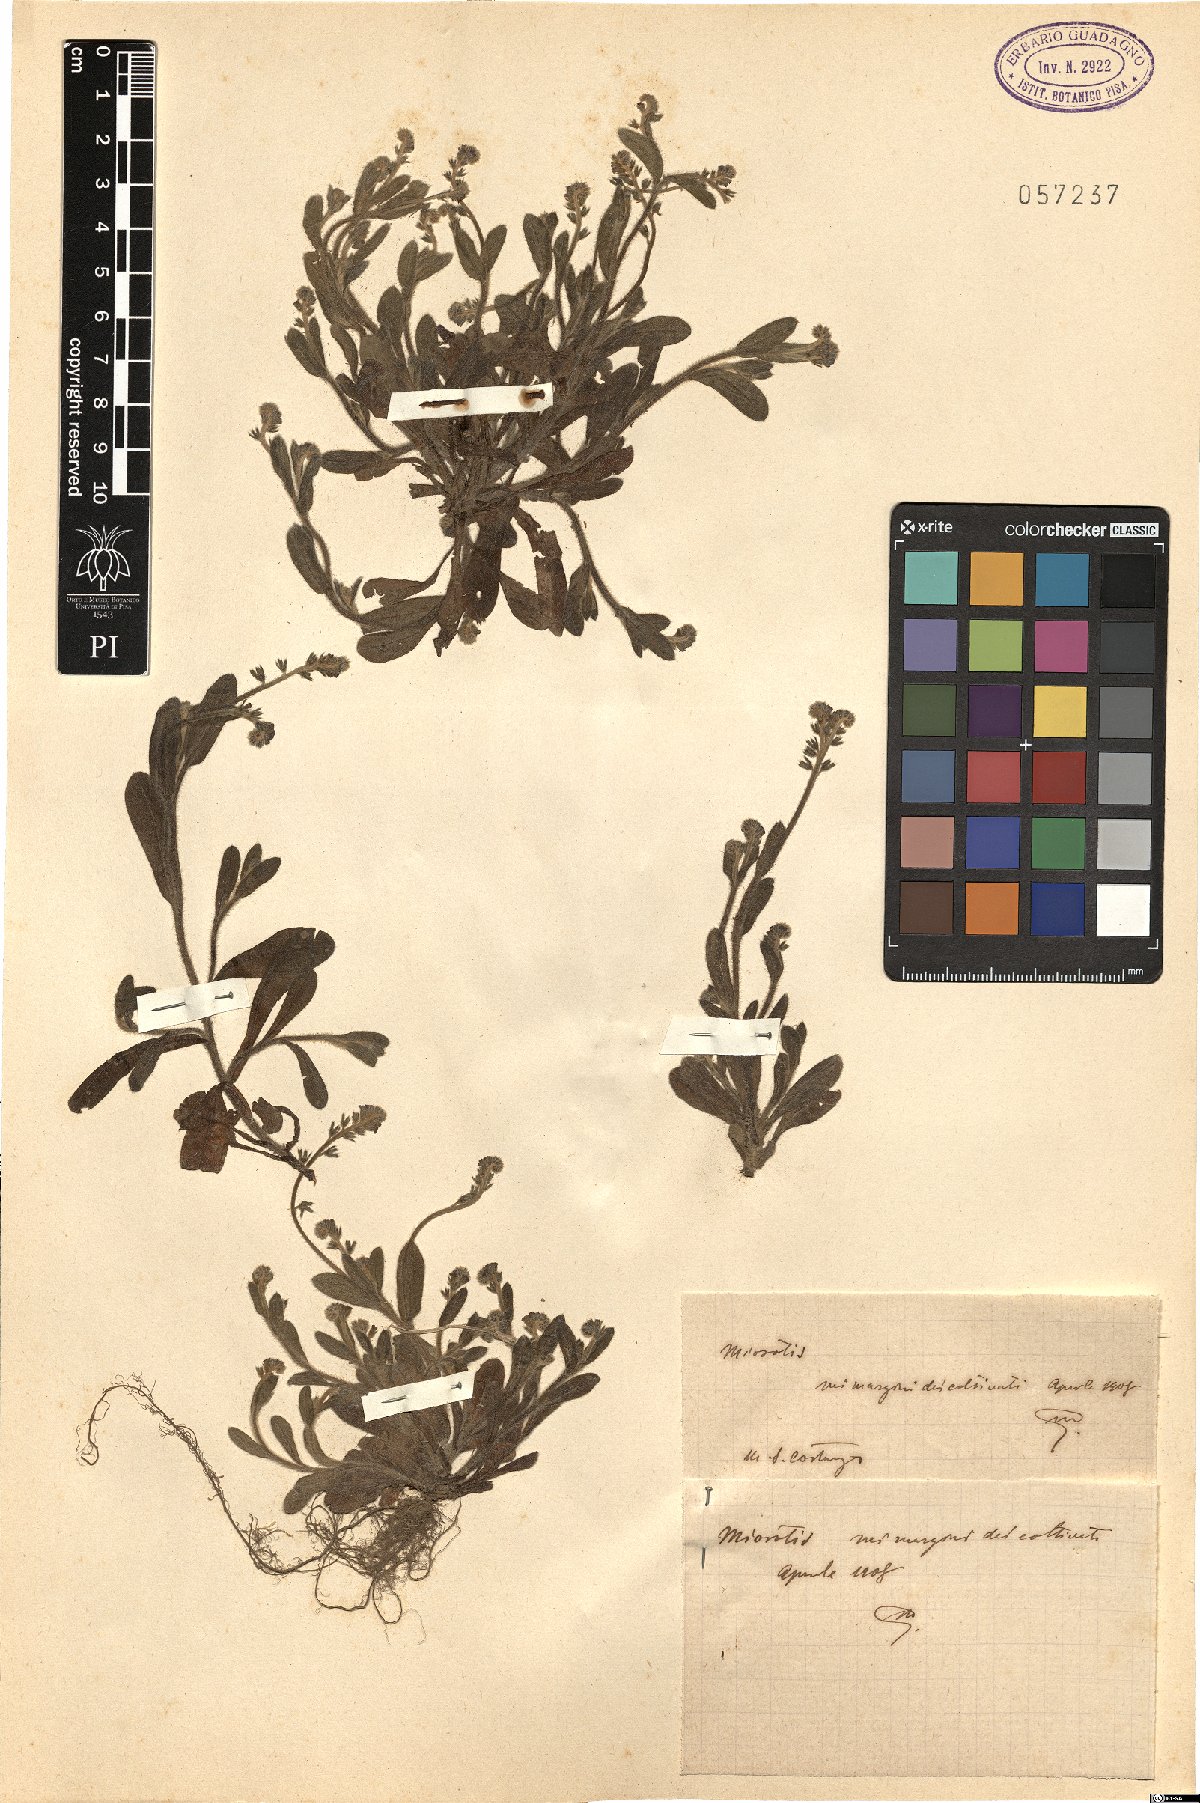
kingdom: Plantae
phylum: Tracheophyta
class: Magnoliopsida
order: Boraginales
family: Boraginaceae
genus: Myosotis
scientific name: Myosotis
